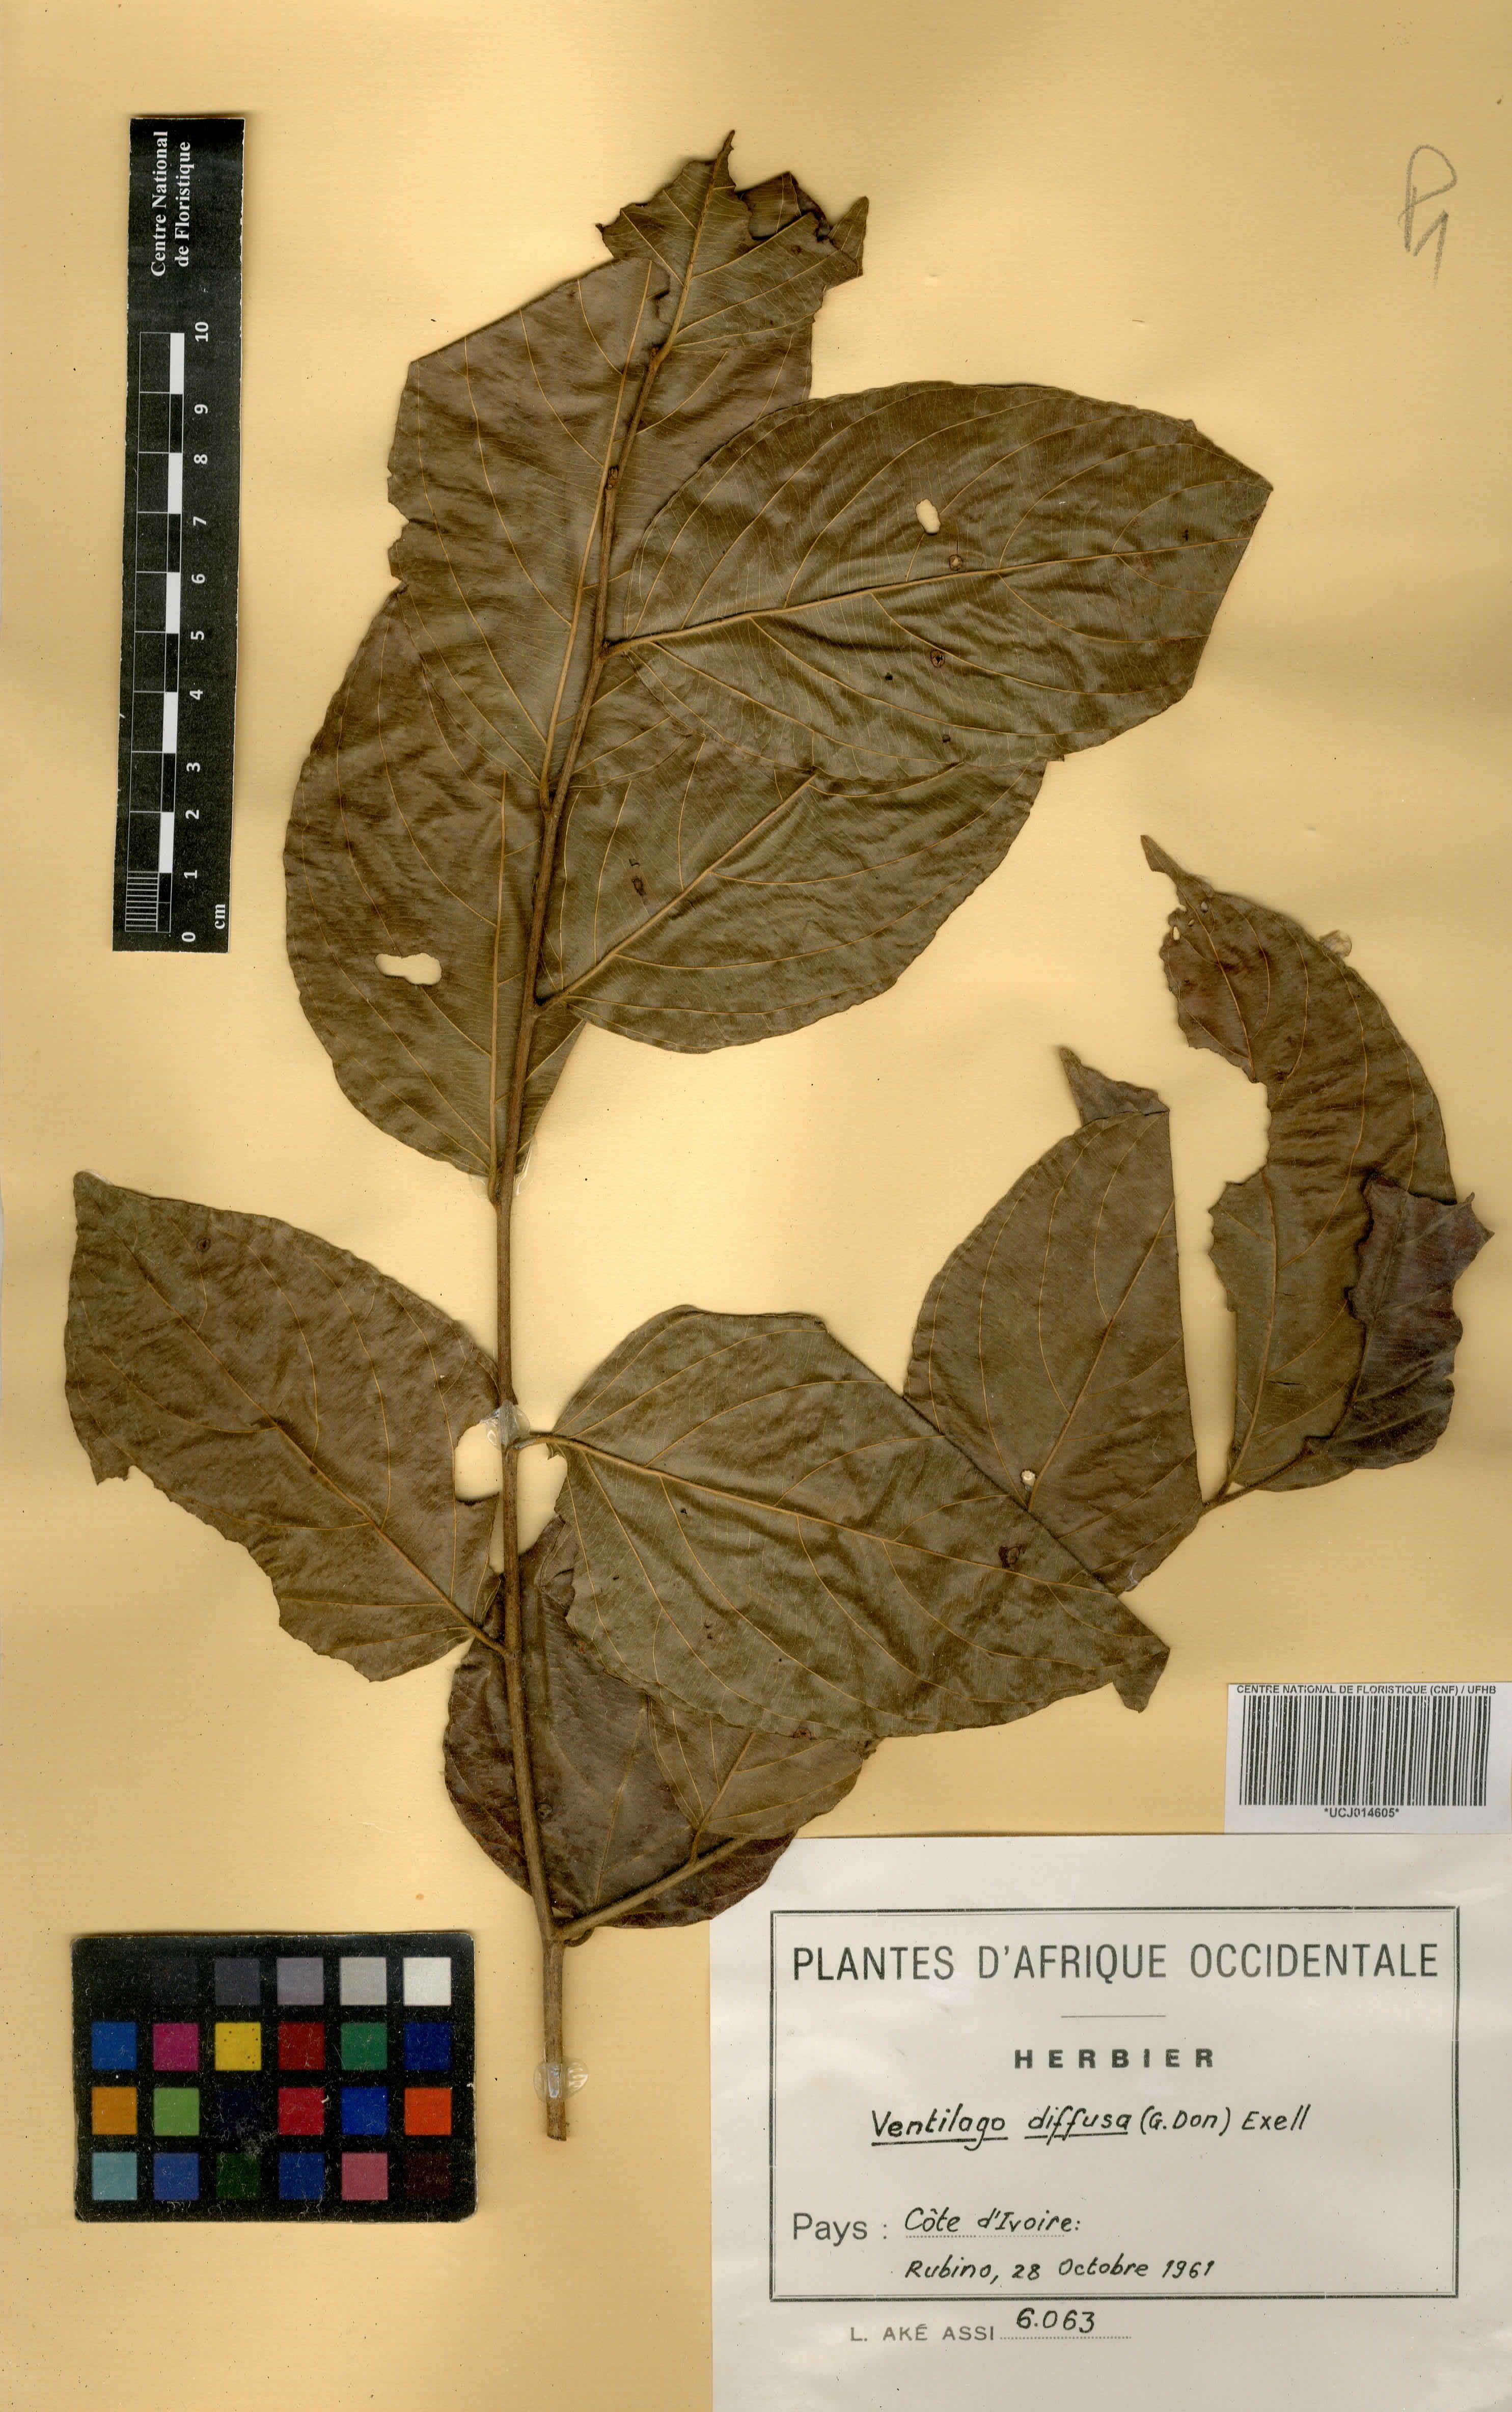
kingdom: Plantae
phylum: Tracheophyta
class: Magnoliopsida
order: Rosales
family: Rhamnaceae
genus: Ventilago
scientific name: Ventilago diffusa
